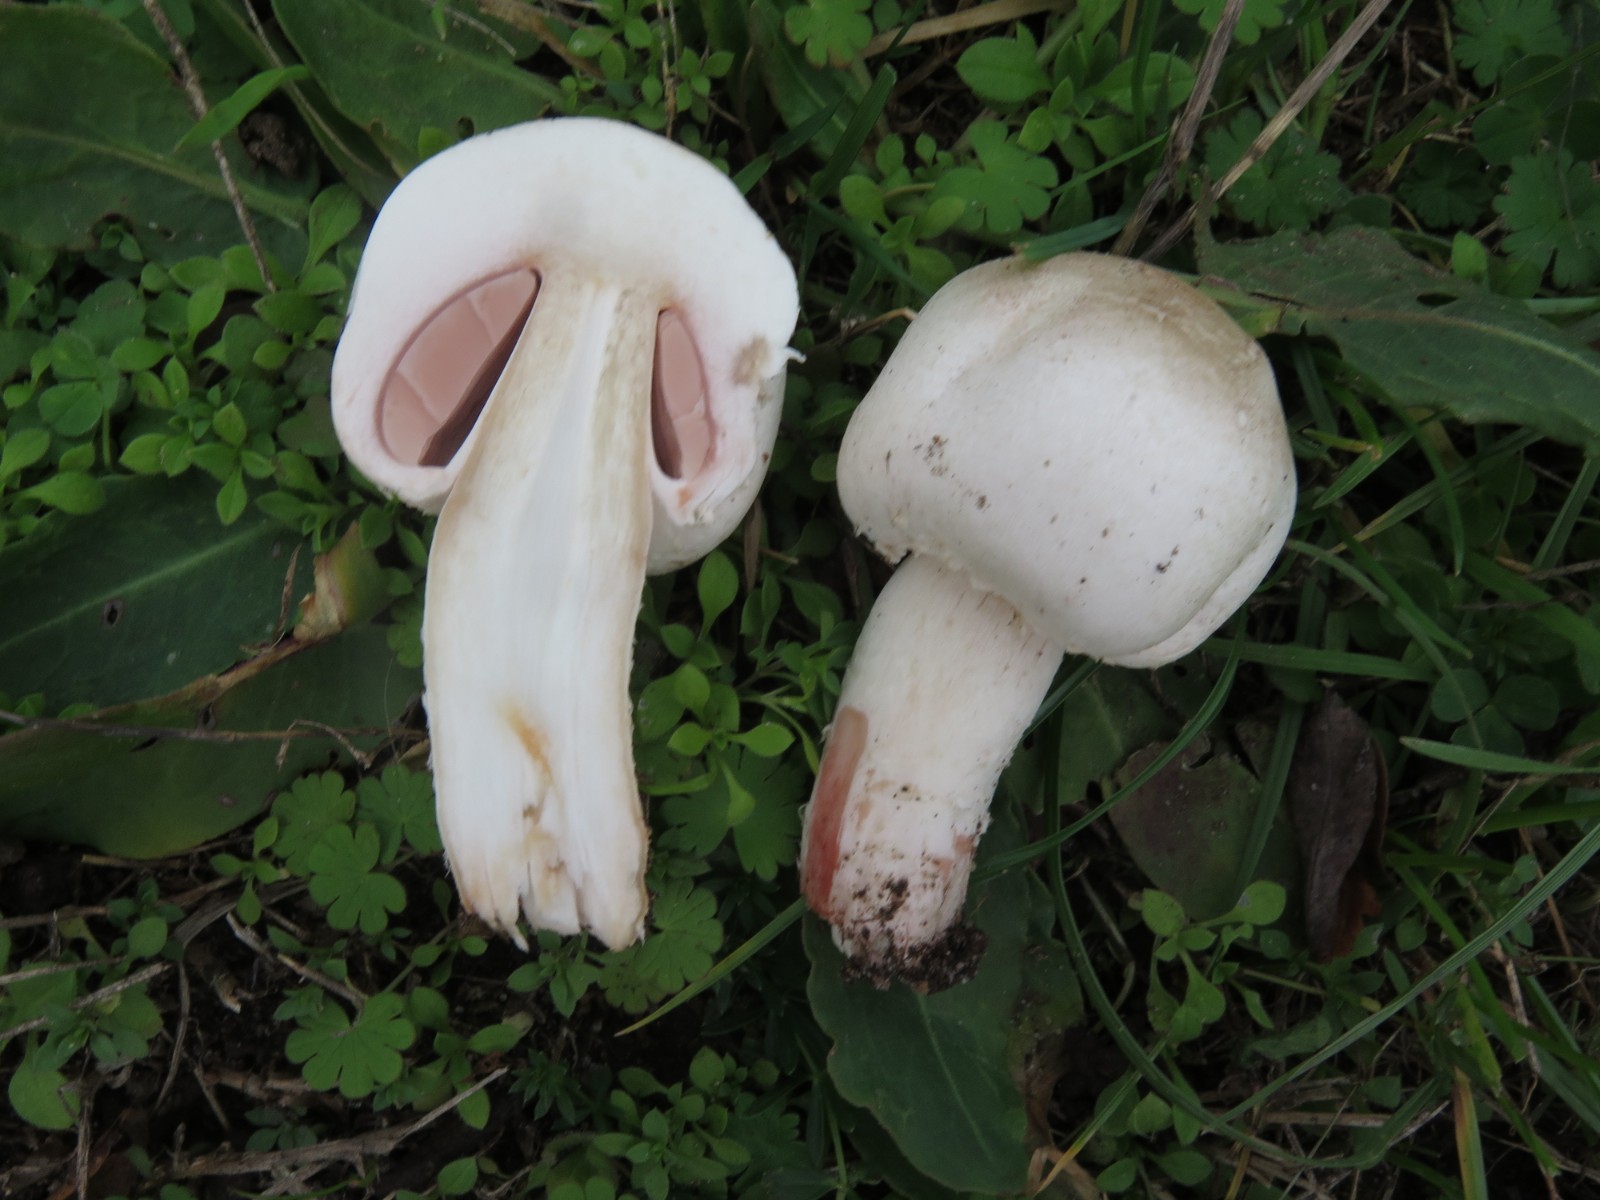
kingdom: Fungi
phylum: Basidiomycota
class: Agaricomycetes
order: Agaricales
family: Agaricaceae
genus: Agaricus
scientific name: Agaricus campestris
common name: mark-champignon
